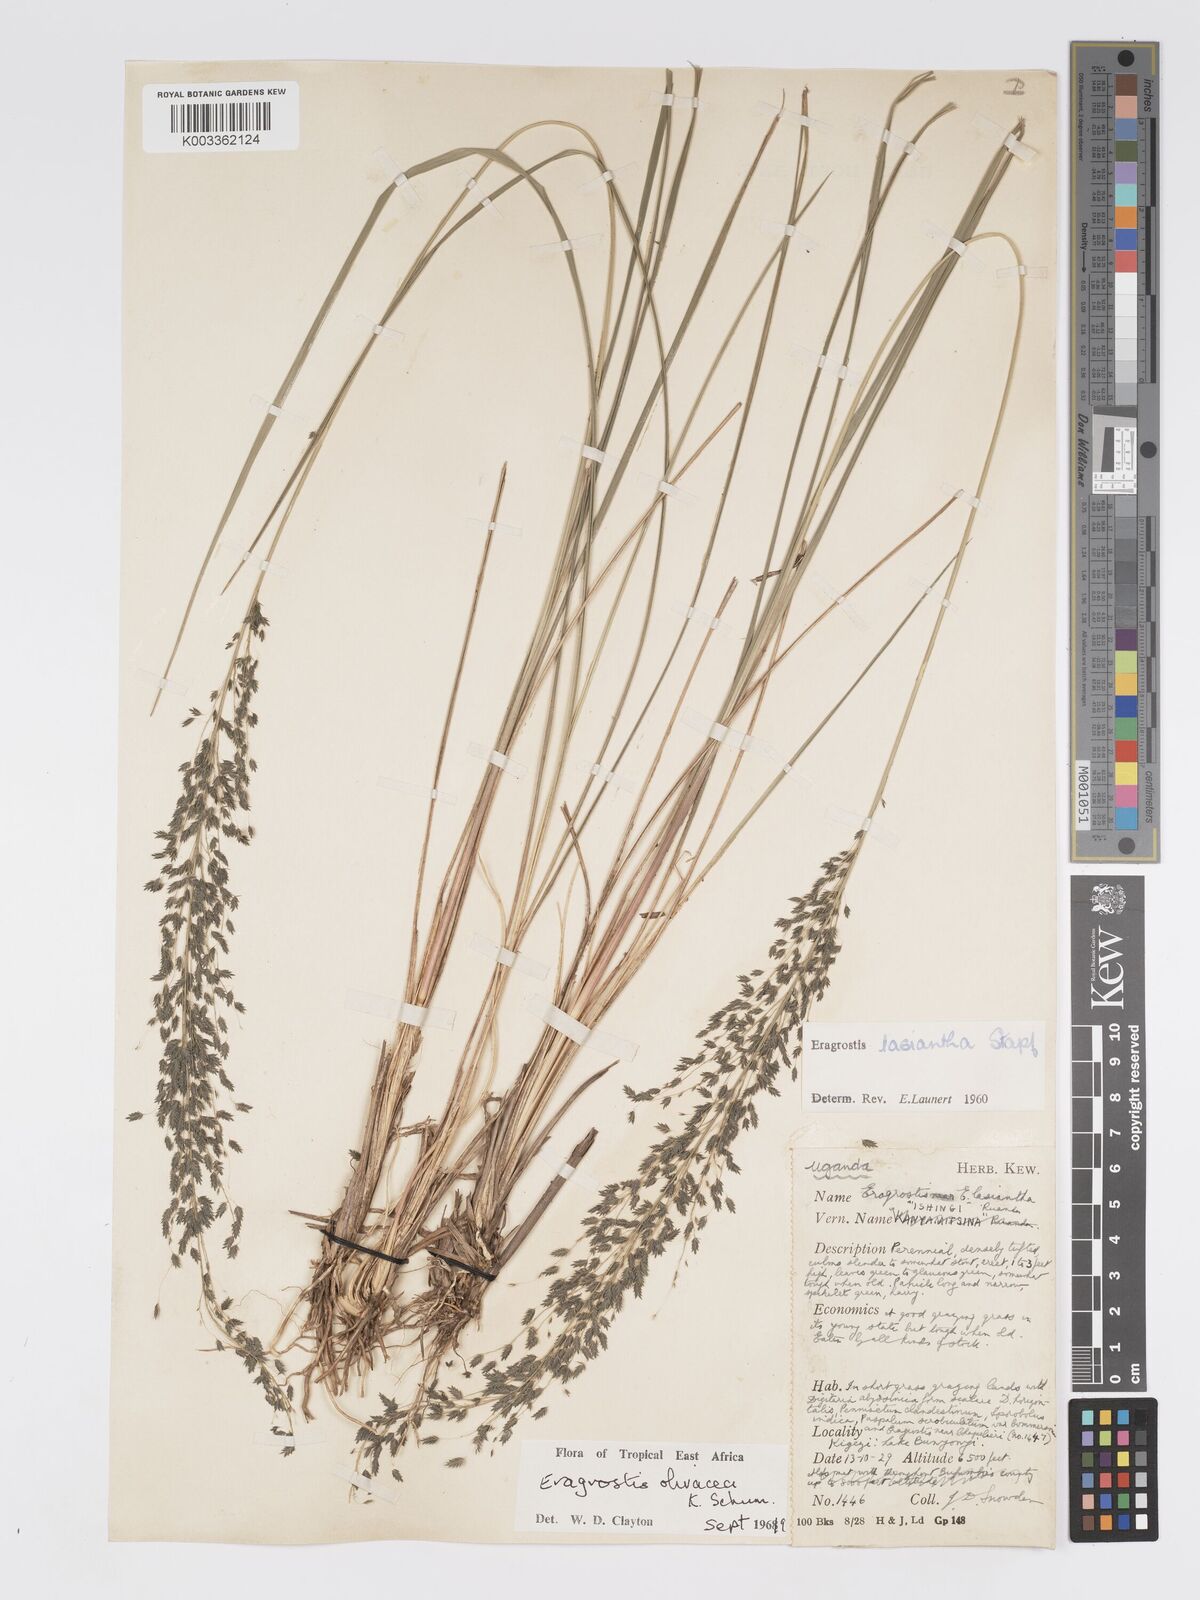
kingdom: Plantae
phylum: Tracheophyta
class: Liliopsida
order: Poales
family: Poaceae
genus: Eragrostis
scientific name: Eragrostis olivacea
